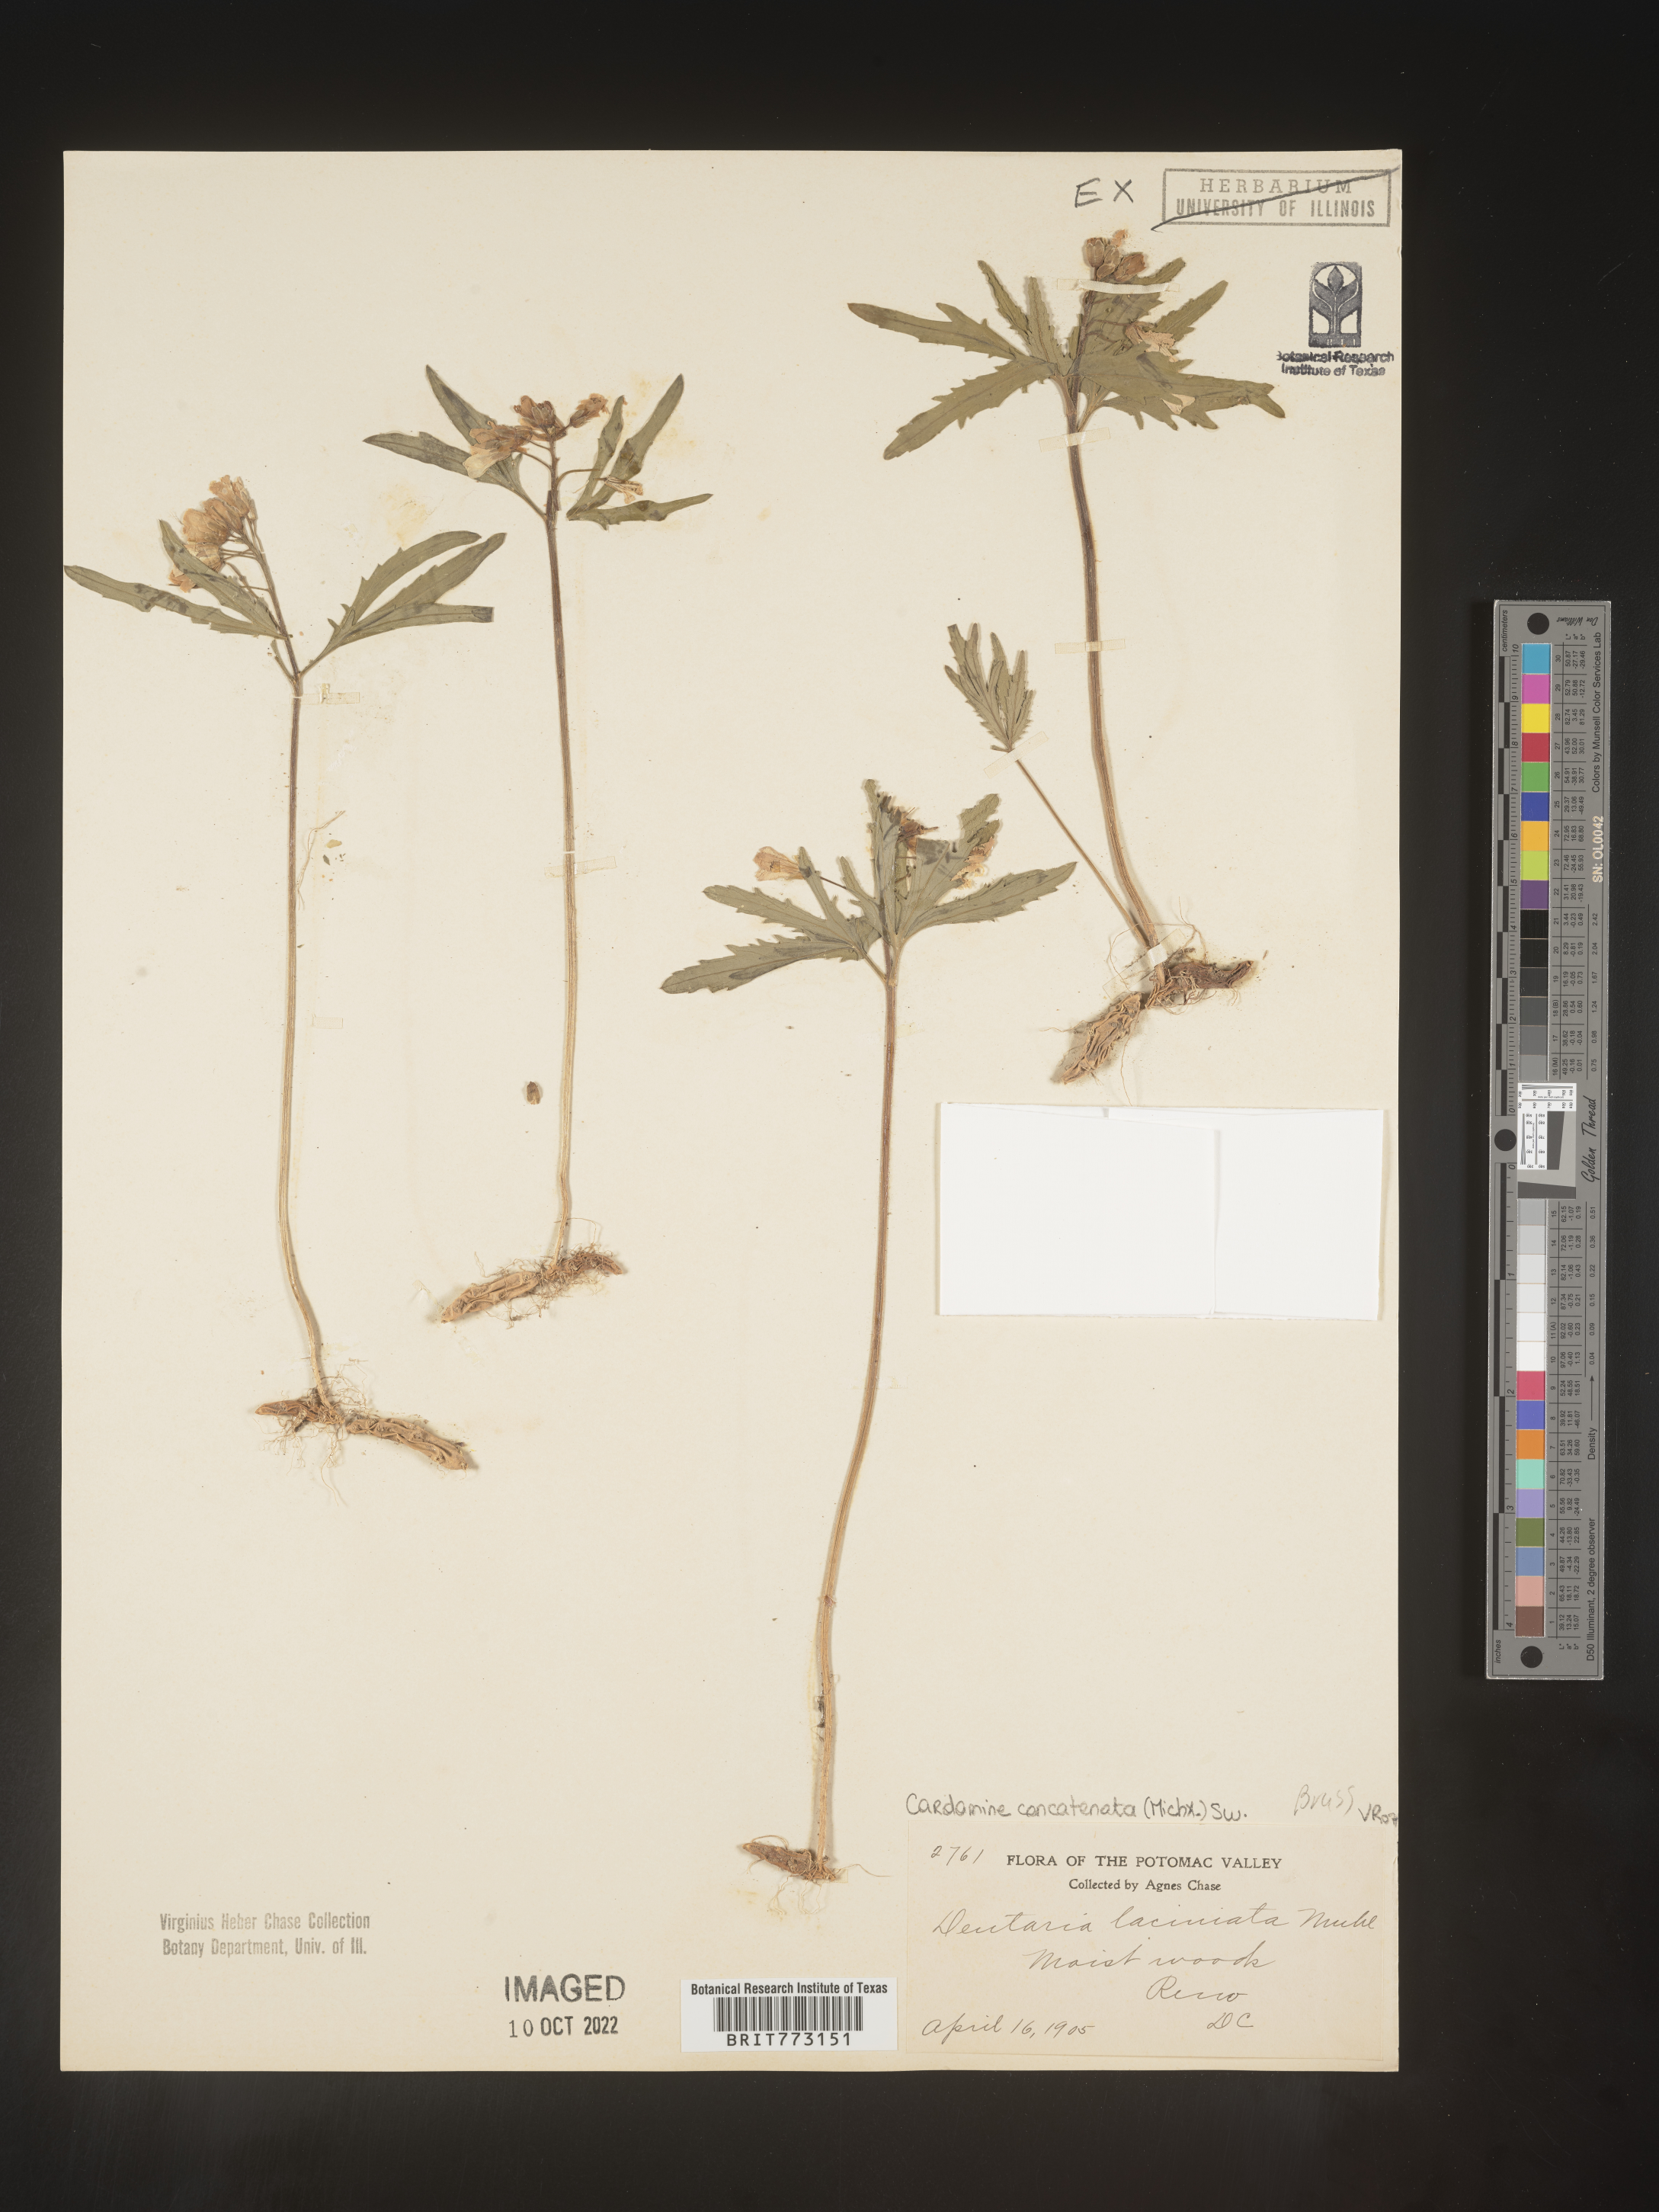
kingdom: Plantae
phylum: Tracheophyta
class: Magnoliopsida
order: Brassicales
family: Brassicaceae
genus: Cardamine
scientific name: Cardamine
